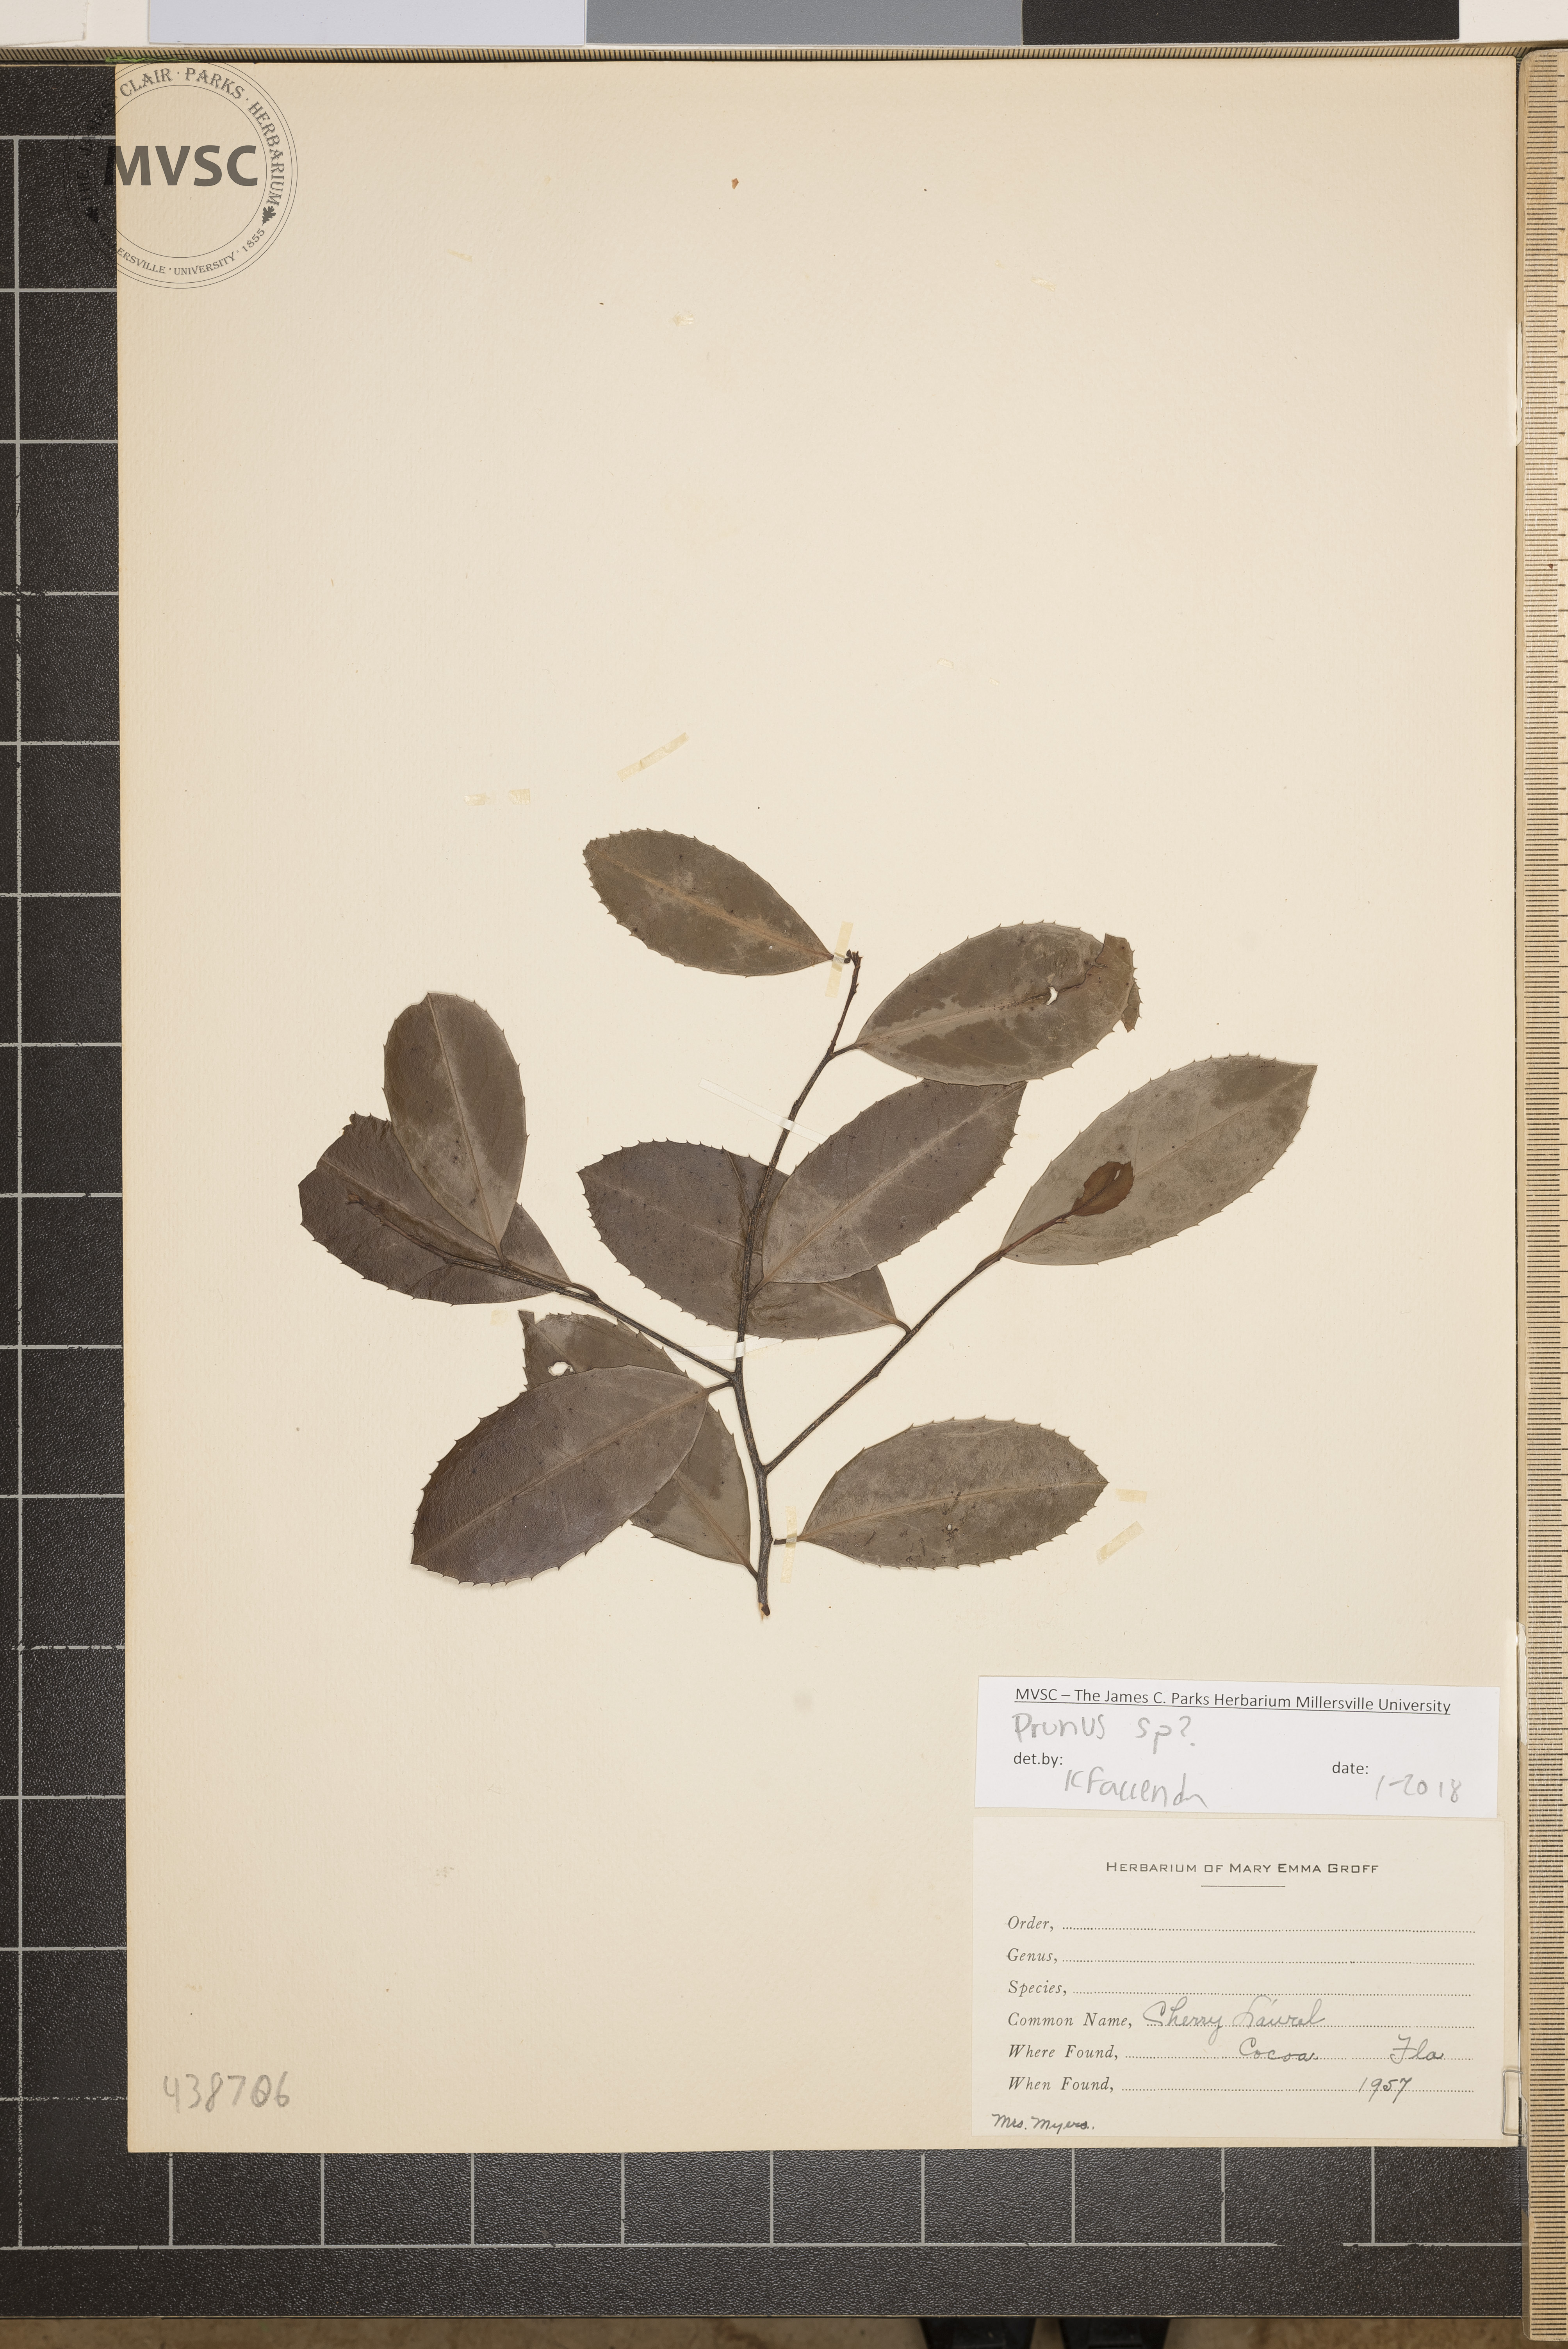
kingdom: Plantae
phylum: Tracheophyta
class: Magnoliopsida
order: Rosales
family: Rosaceae
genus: Prunus
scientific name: Prunus
